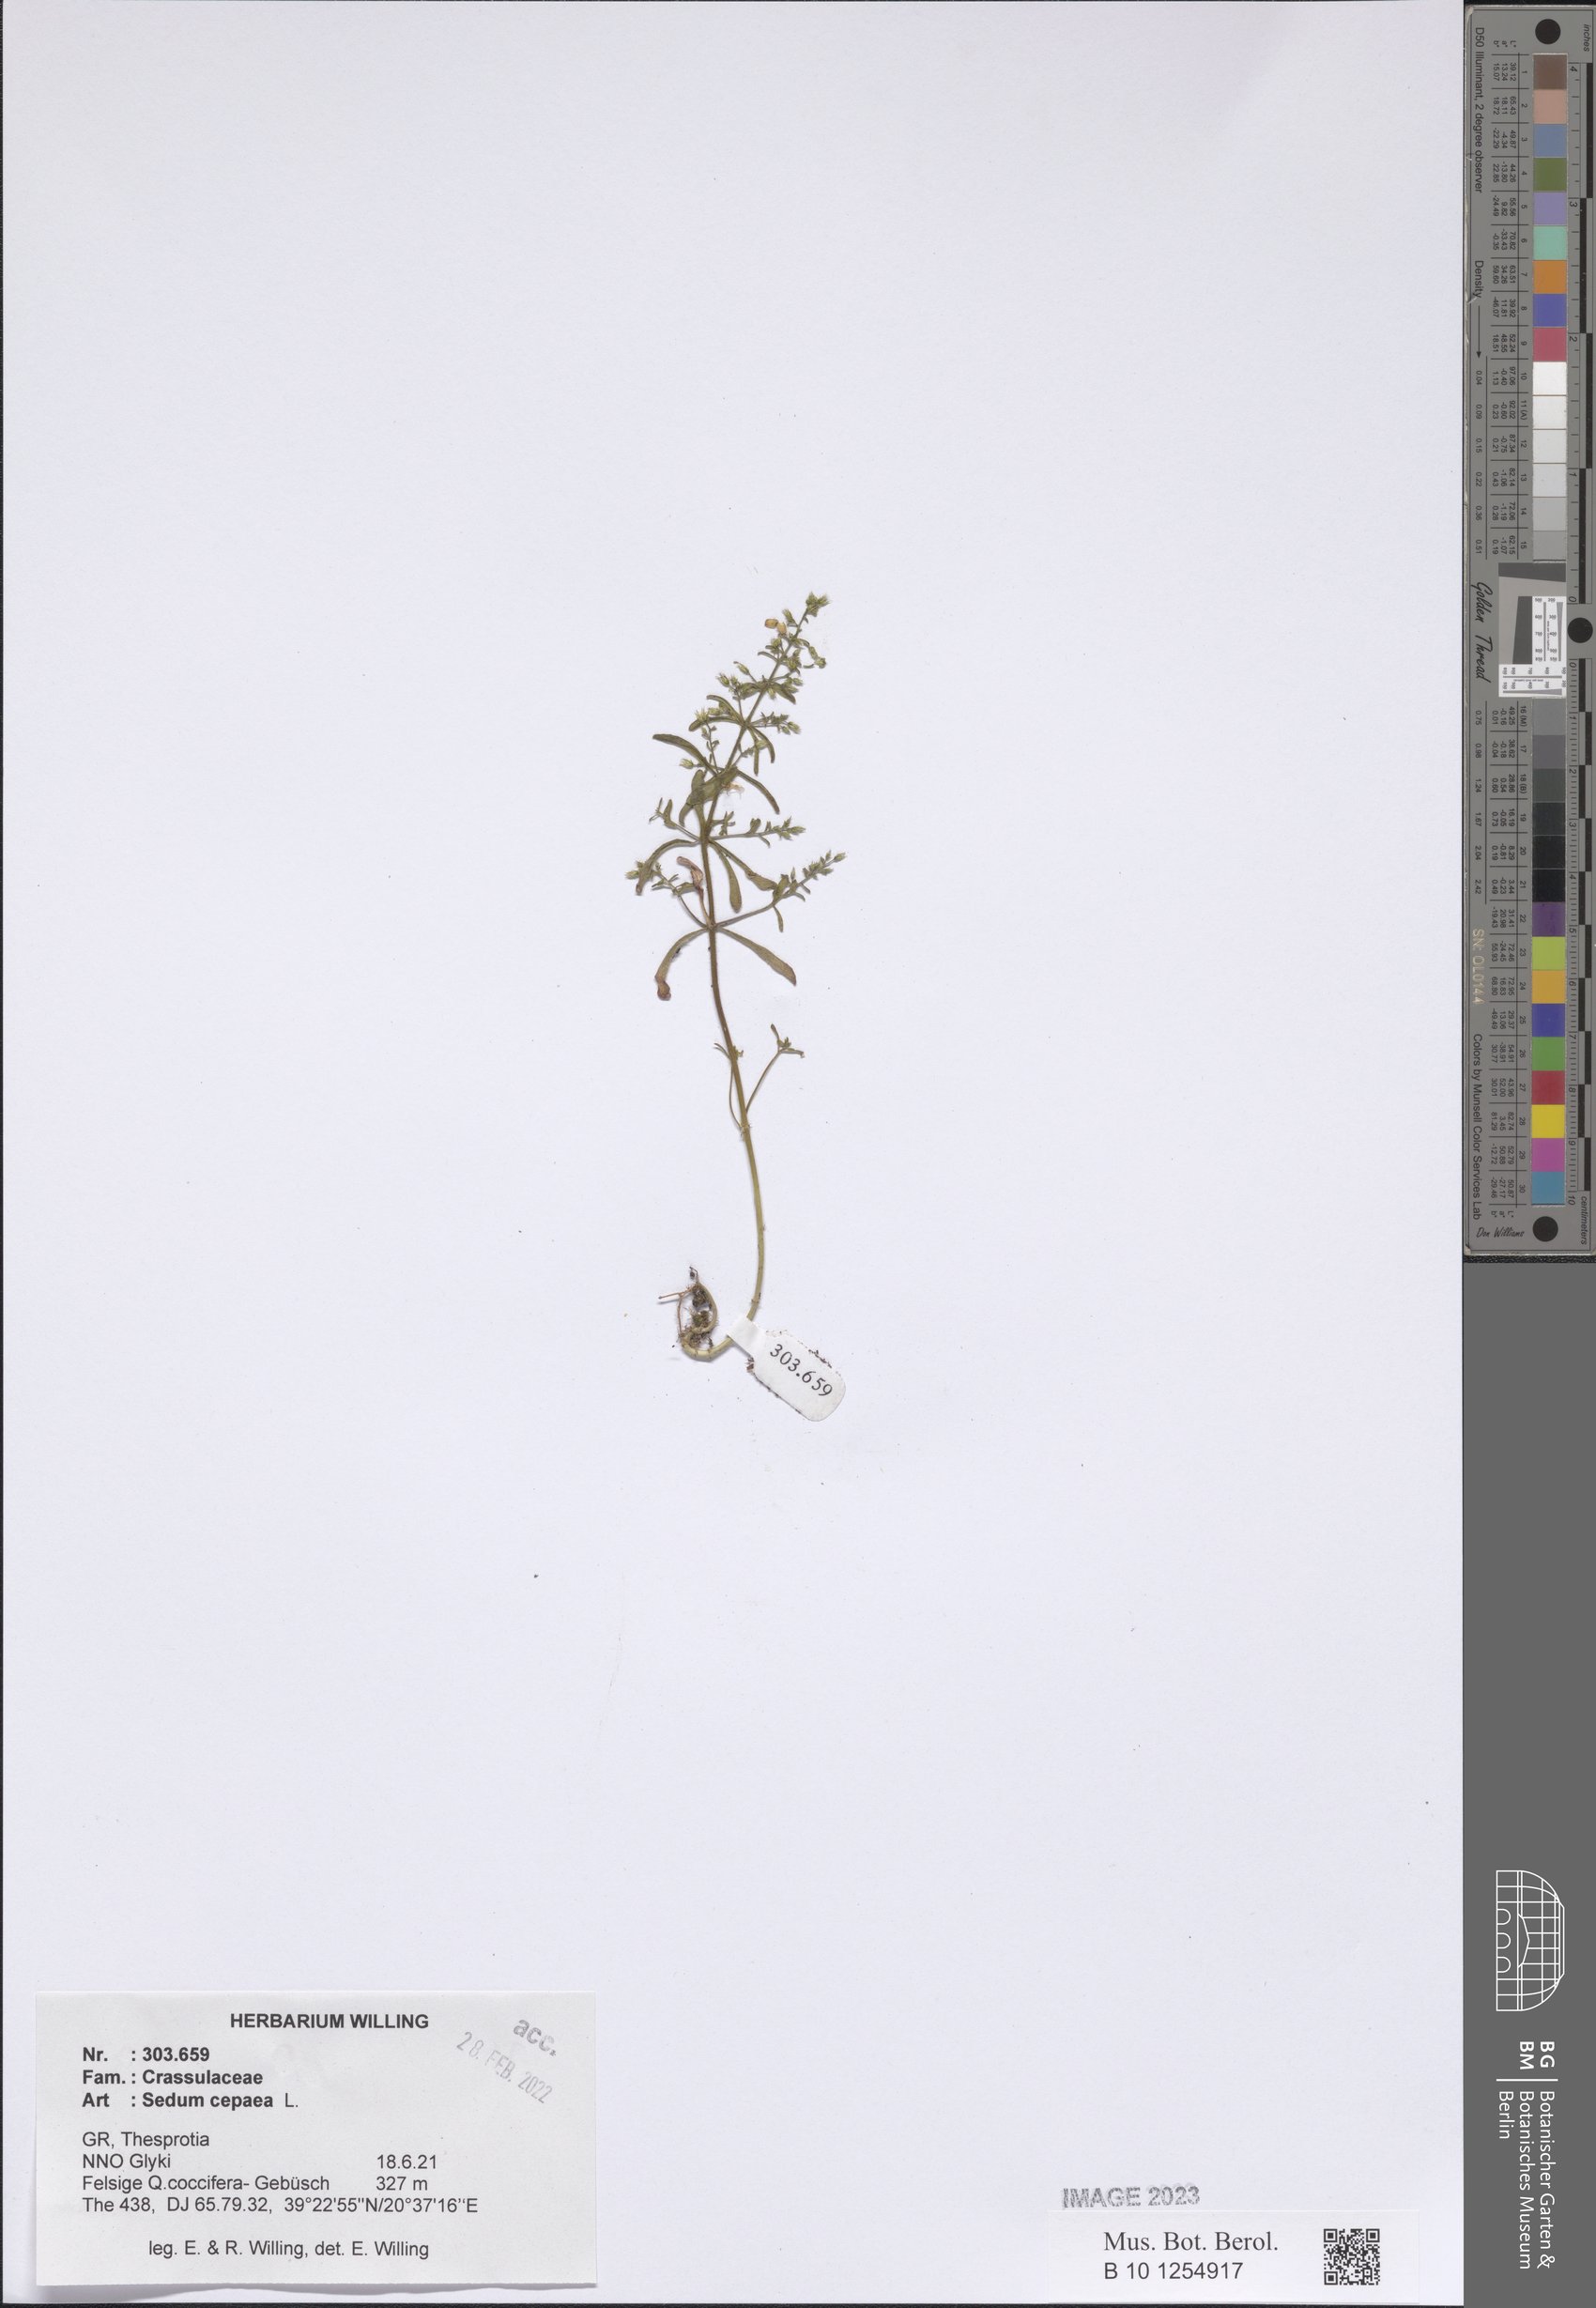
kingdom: Plantae
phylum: Tracheophyta
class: Magnoliopsida
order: Saxifragales
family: Crassulaceae
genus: Sedum
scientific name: Sedum cepaea
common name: Pink stonecrop
